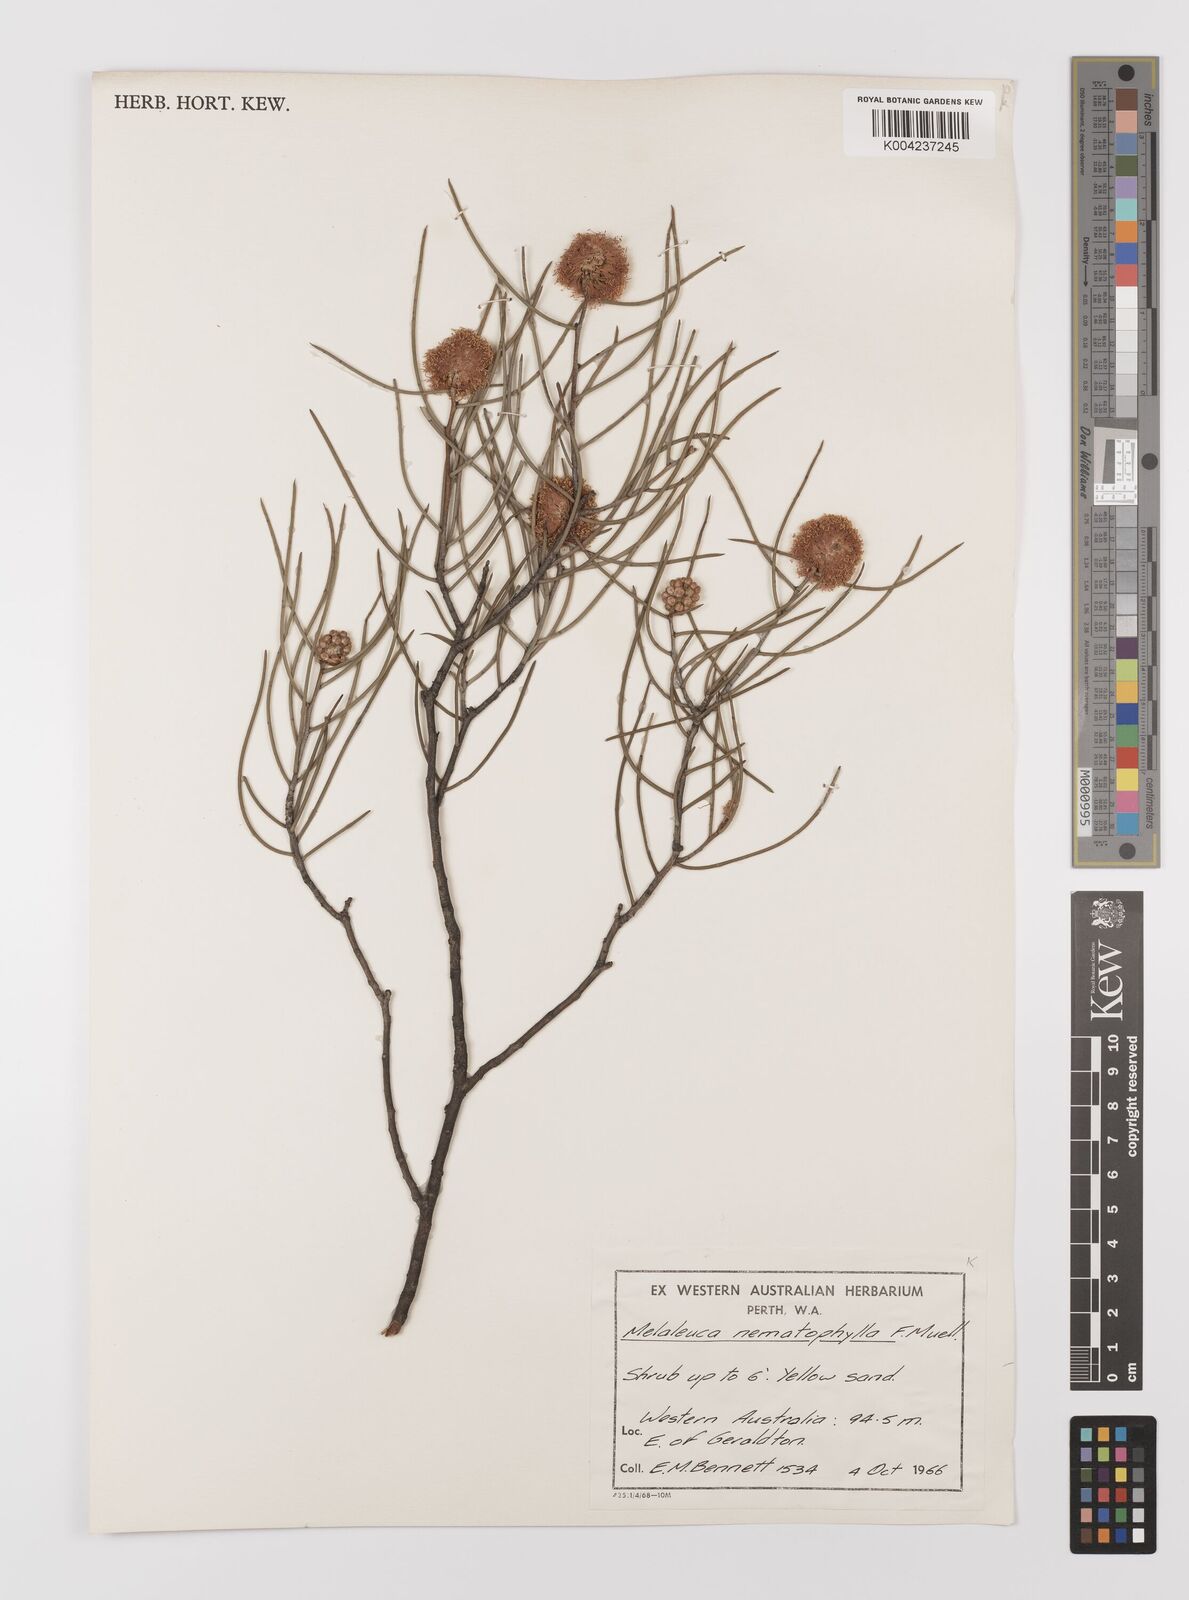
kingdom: Plantae
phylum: Tracheophyta
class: Magnoliopsida
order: Myrtales
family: Myrtaceae
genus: Melaleuca
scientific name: Melaleuca filifolia
